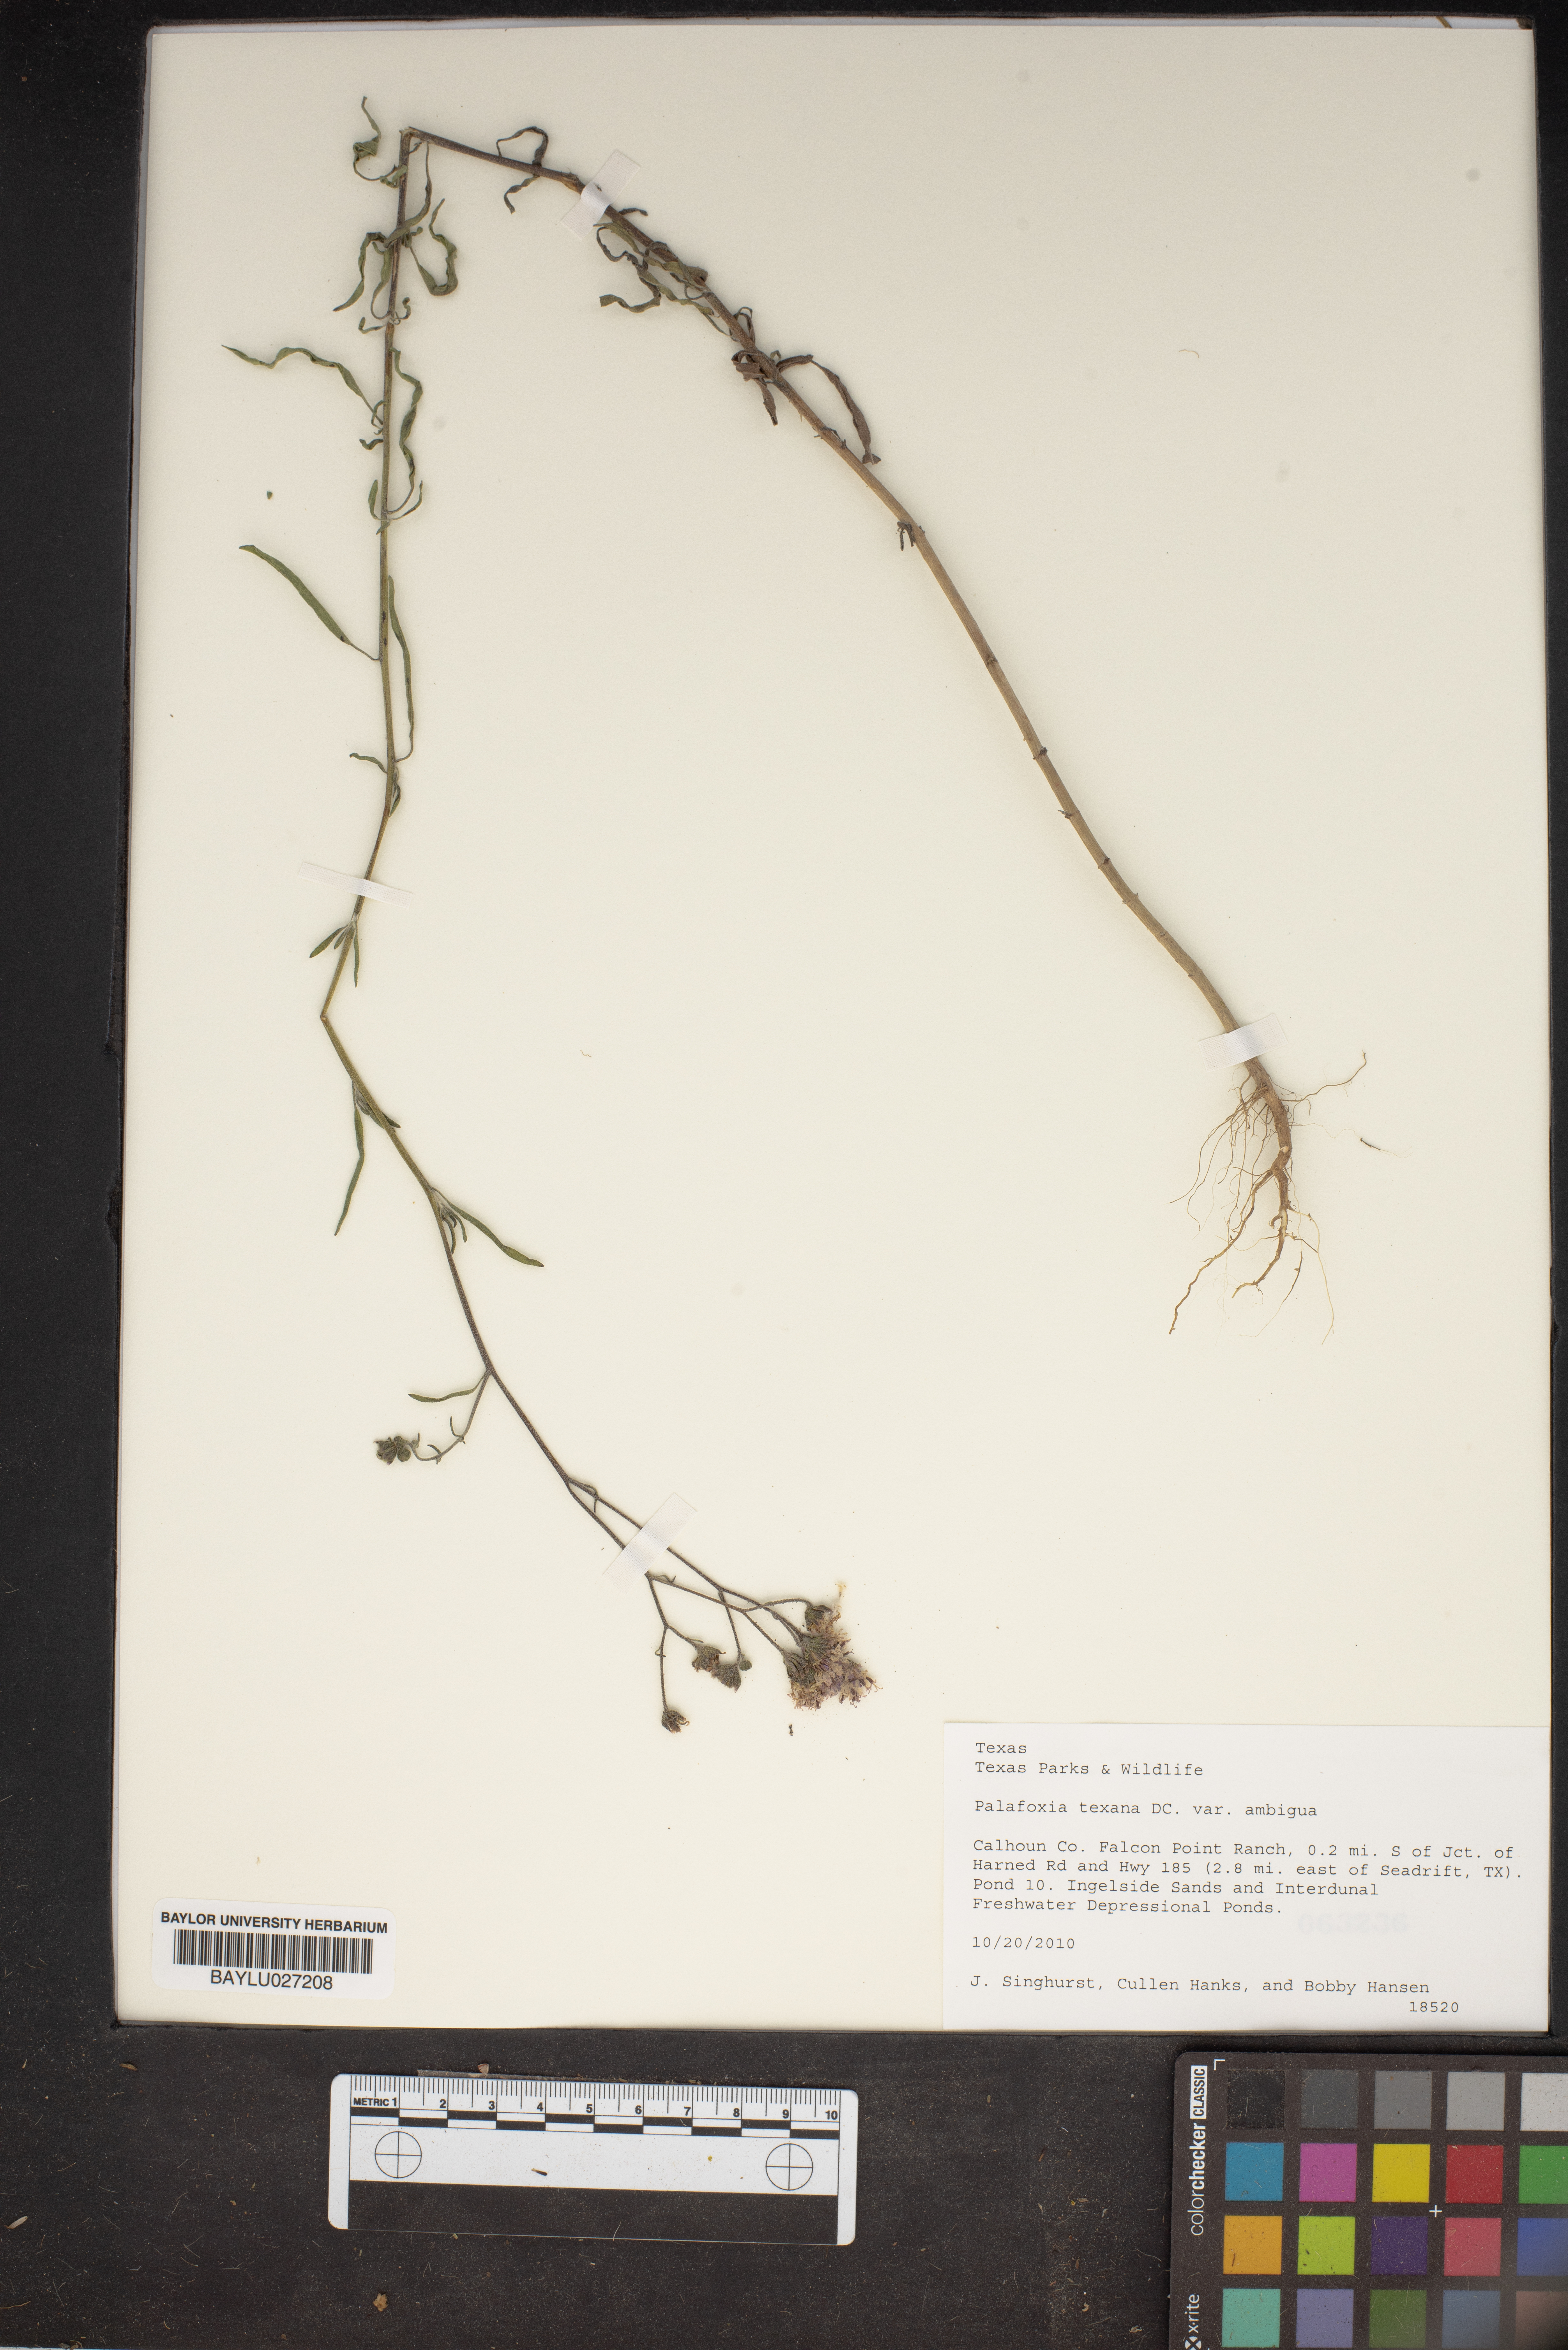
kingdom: Plantae
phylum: Tracheophyta
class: Magnoliopsida
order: Asterales
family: Asteraceae
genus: Palafoxia
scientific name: Palafoxia texana
